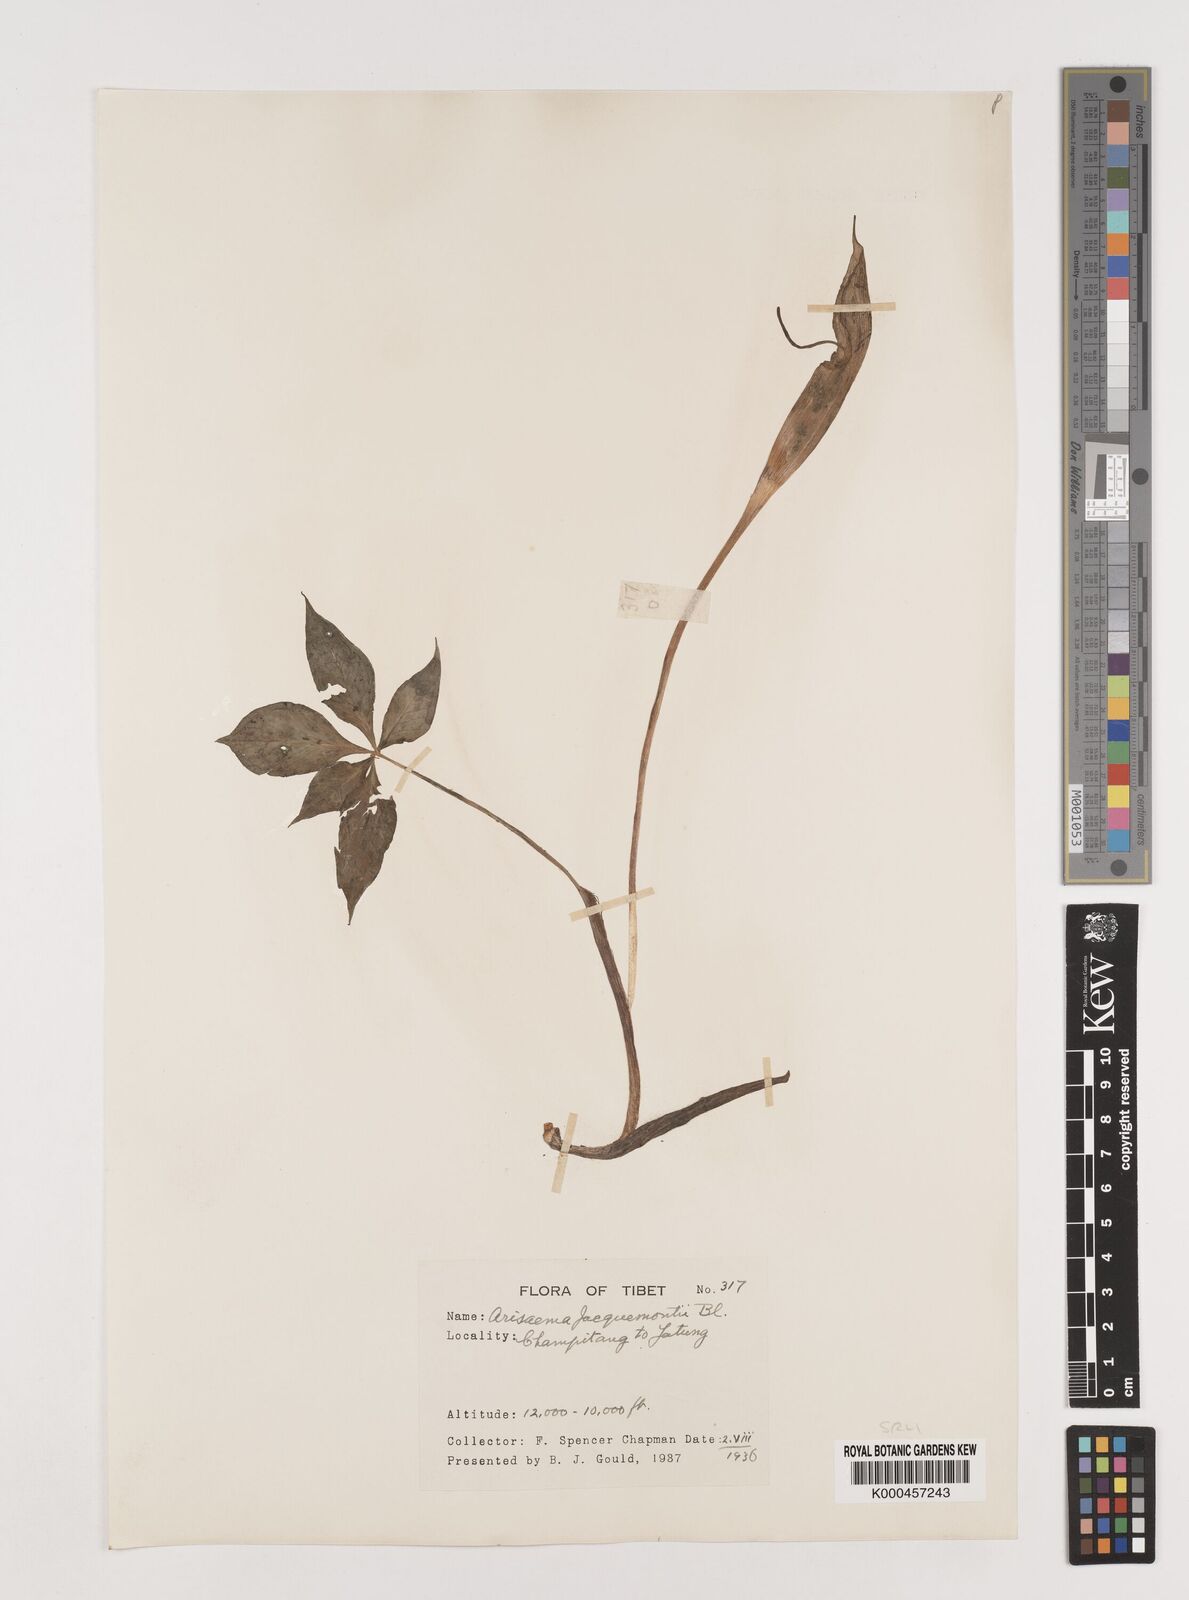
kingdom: Plantae
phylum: Tracheophyta
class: Liliopsida
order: Alismatales
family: Araceae
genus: Arisaema
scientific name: Arisaema jacquemontii
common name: Jacquemont's cobra-lily
